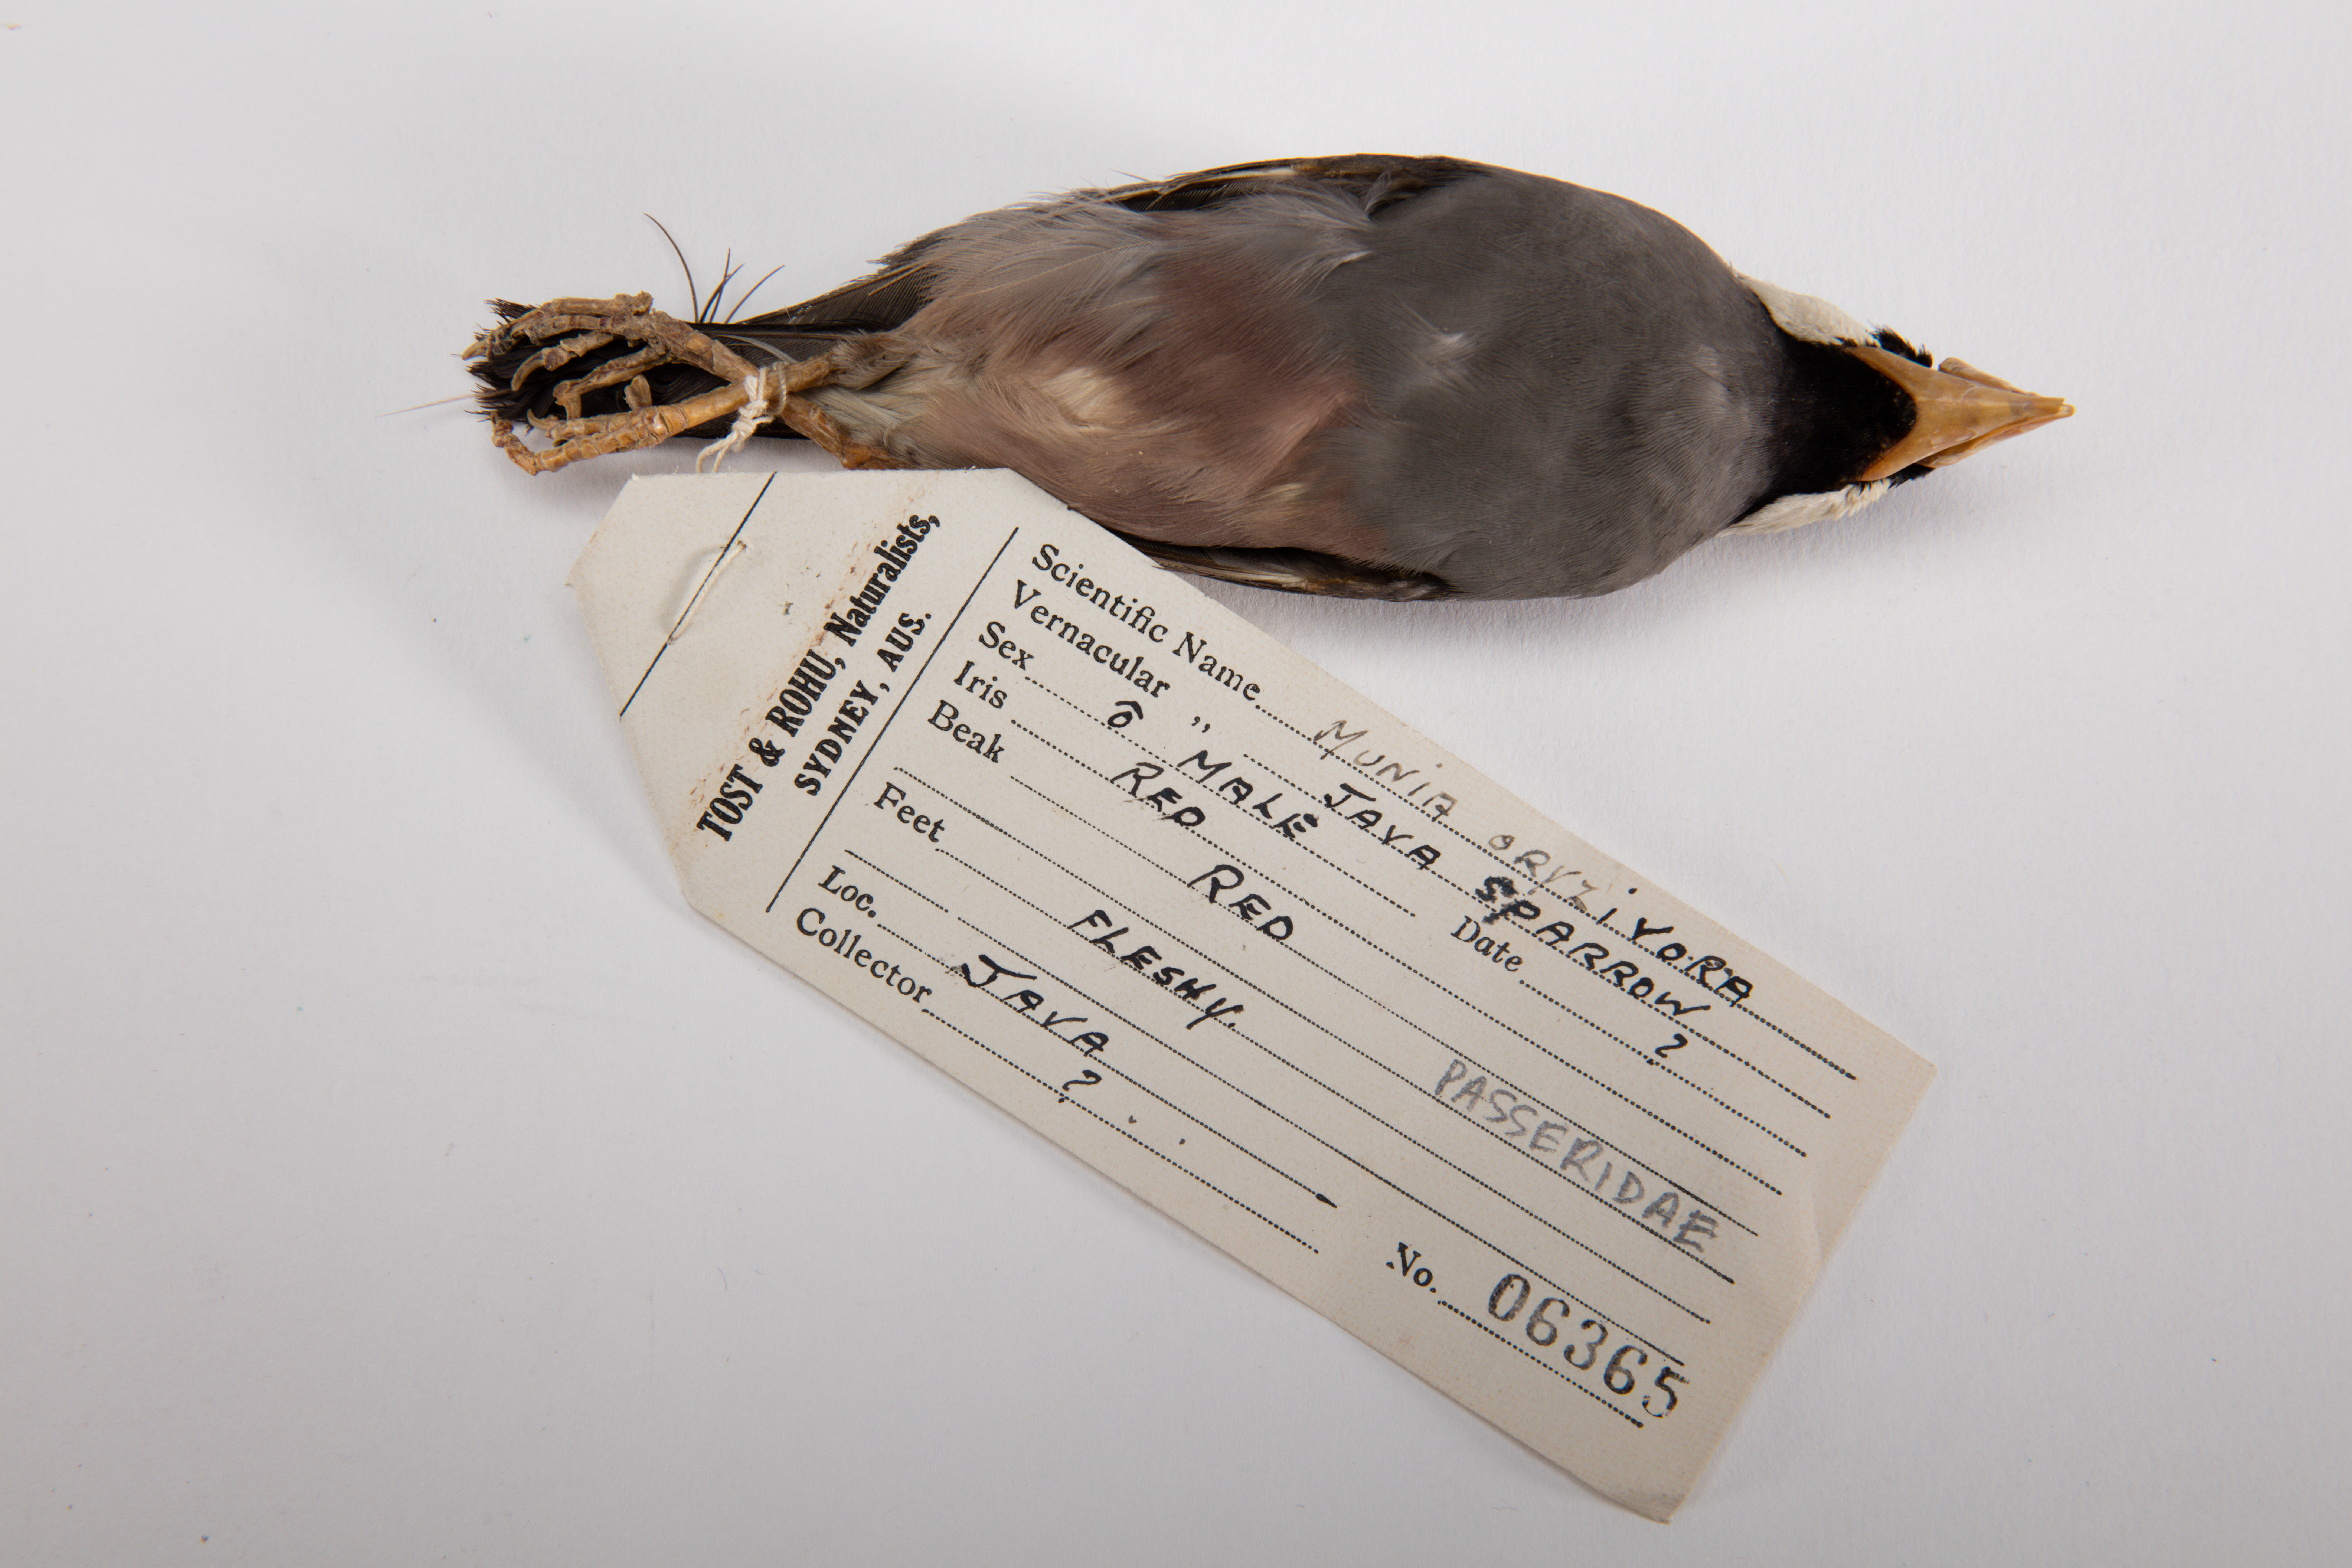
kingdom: Animalia
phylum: Chordata
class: Aves
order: Passeriformes
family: Estrildidae
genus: Lonchura
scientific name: Lonchura oryzivora
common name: Java sparrow
